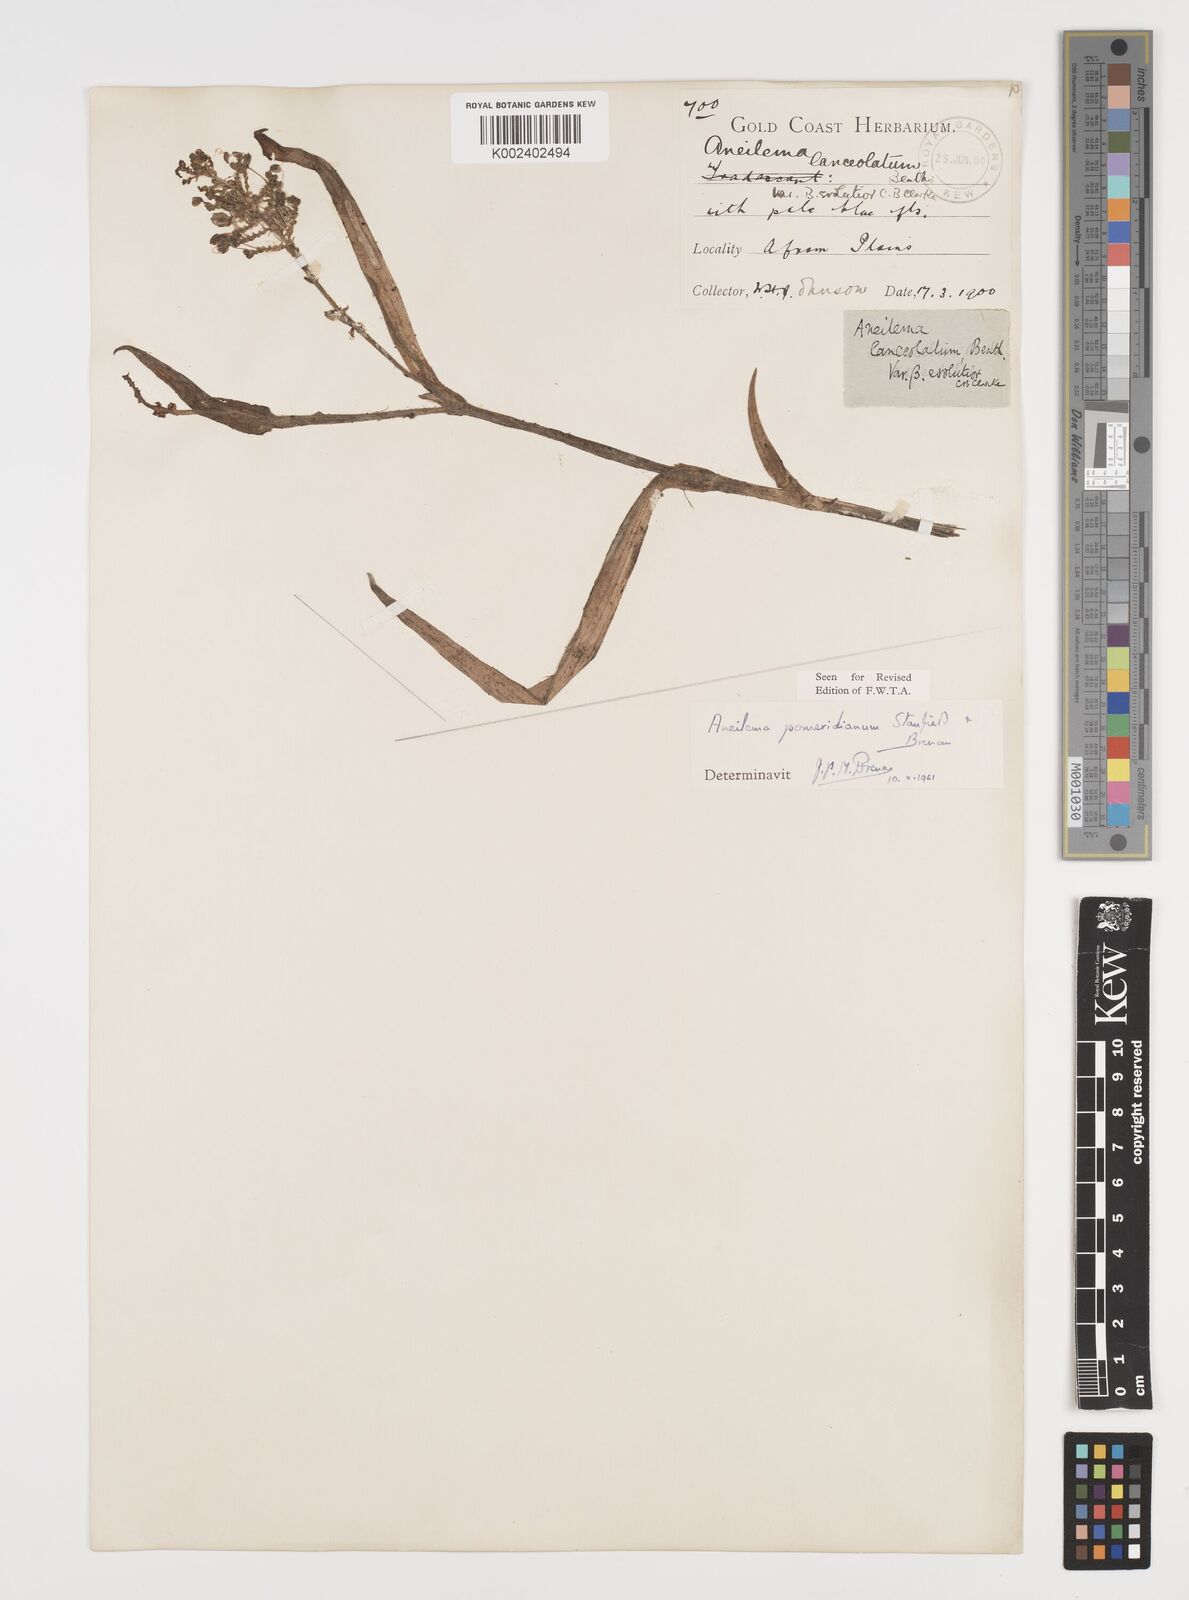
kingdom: Plantae
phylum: Tracheophyta
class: Liliopsida
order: Commelinales
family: Commelinaceae
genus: Aneilema
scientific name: Aneilema pomeridianum
